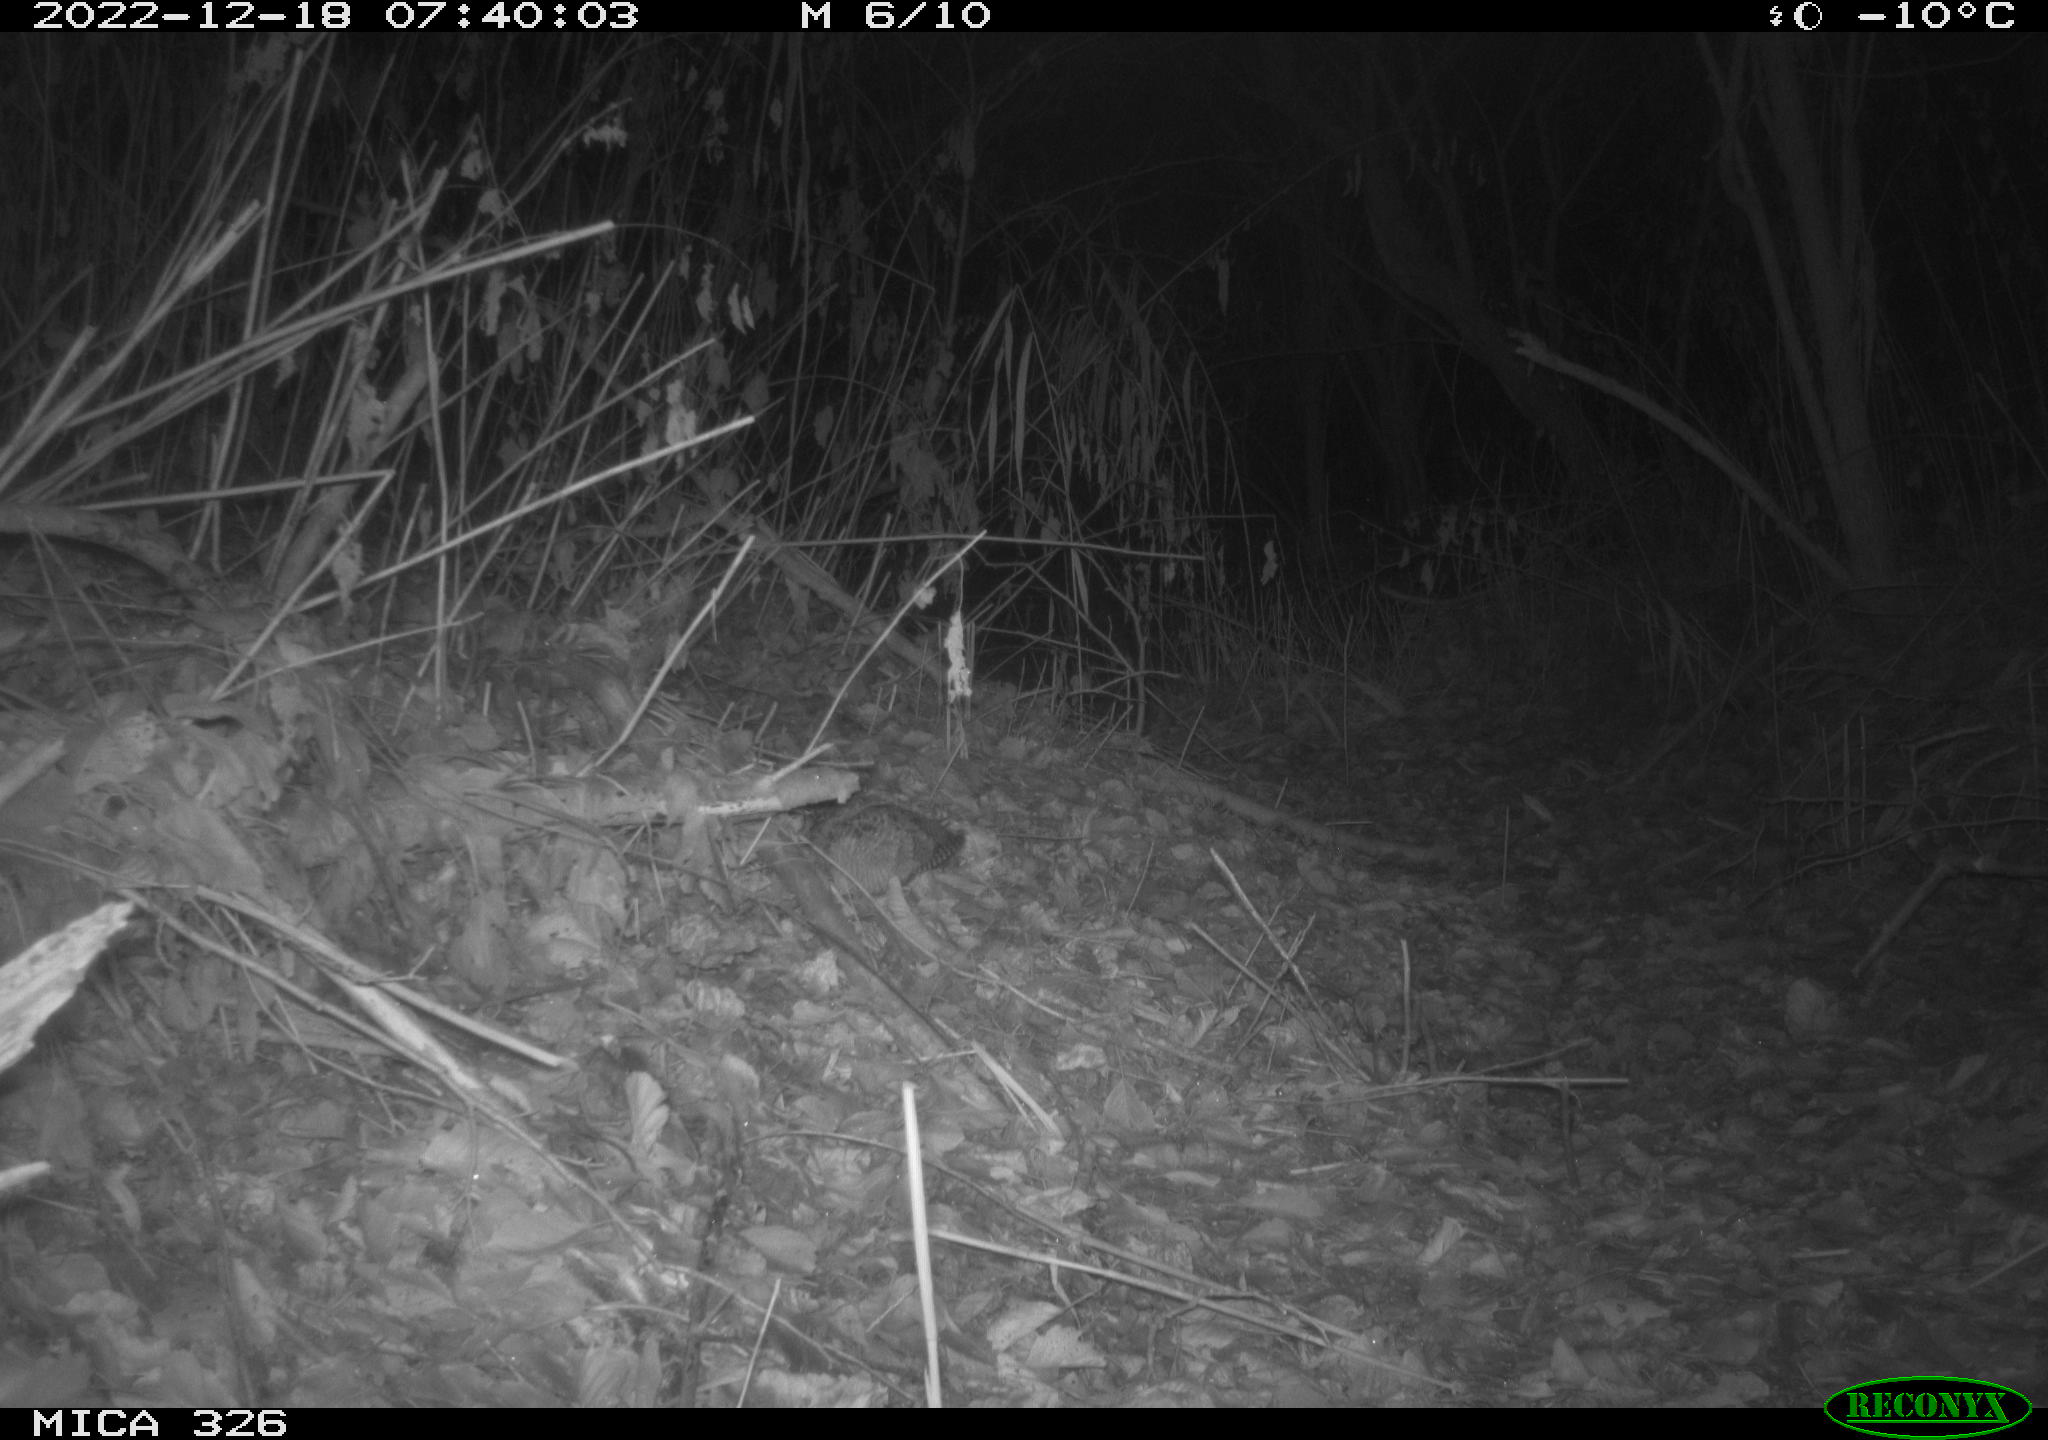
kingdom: Animalia
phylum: Chordata
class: Aves
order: Charadriiformes
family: Scolopacidae
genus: Scolopax
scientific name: Scolopax rusticola
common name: Eurasian woodcock
